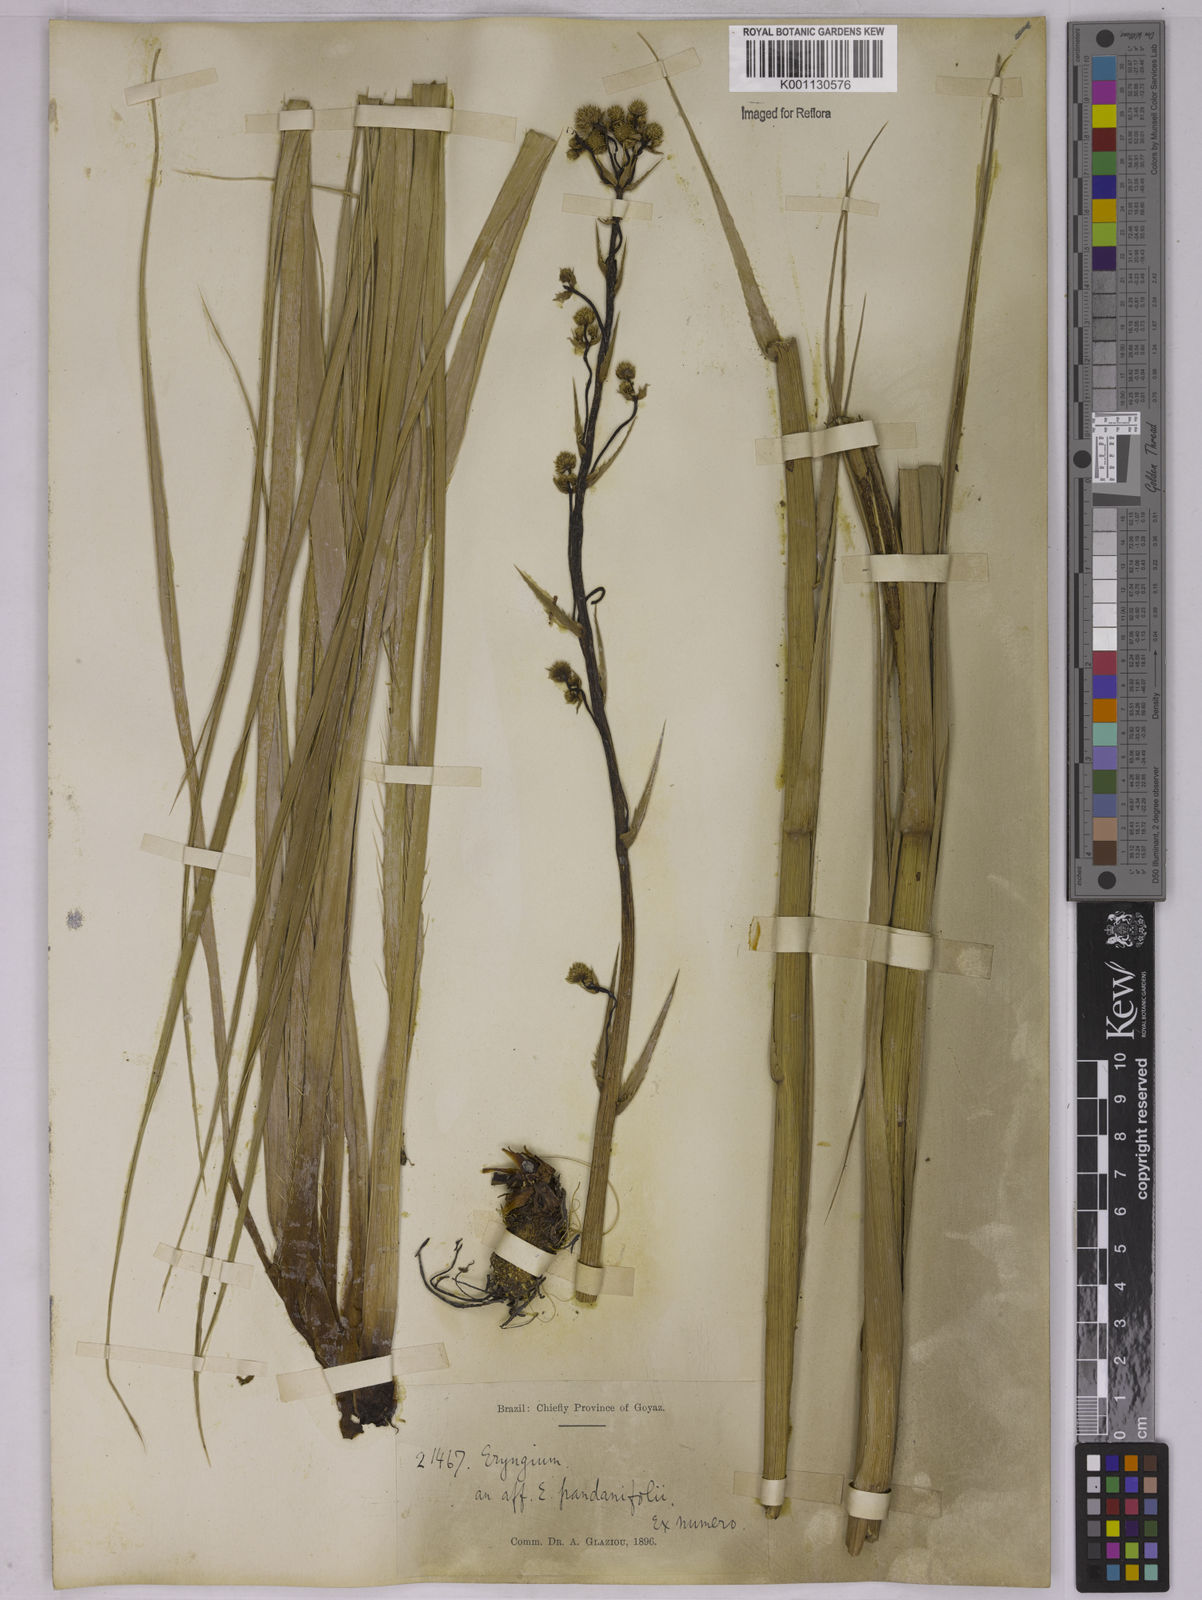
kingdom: Plantae
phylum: Tracheophyta
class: Magnoliopsida
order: Apiales
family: Apiaceae
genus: Eryngium
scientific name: Eryngium regnellii
